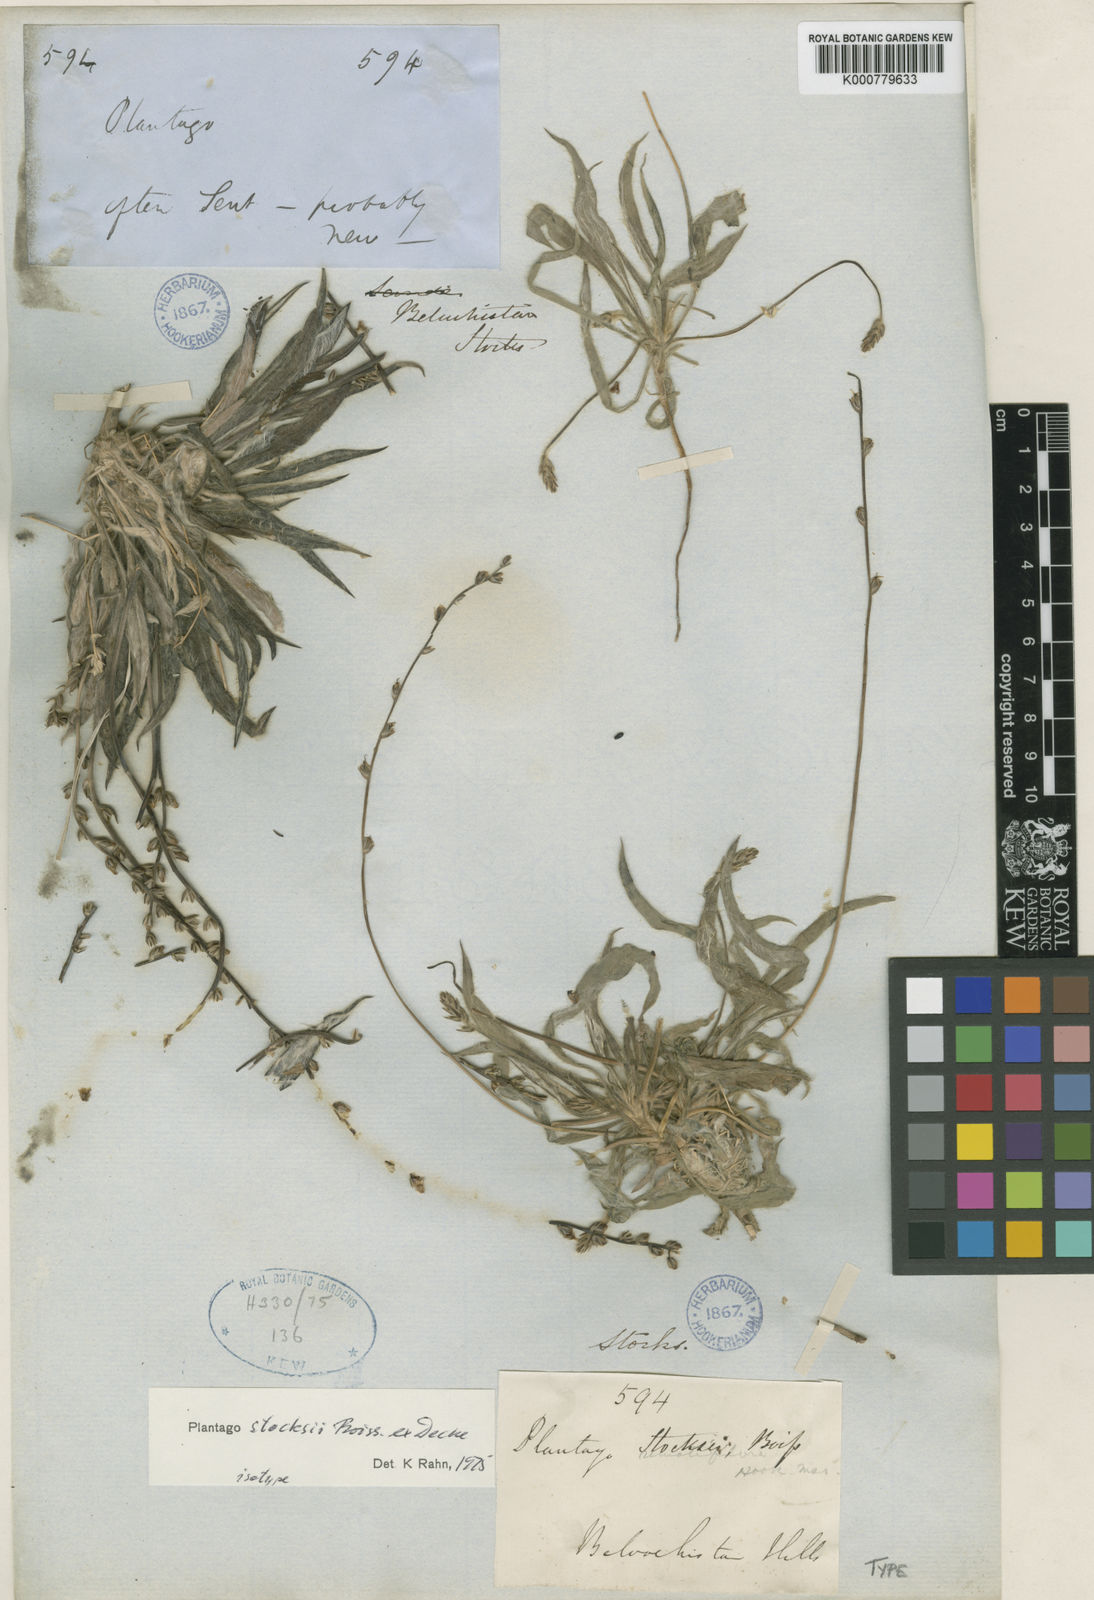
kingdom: Plantae
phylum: Tracheophyta
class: Magnoliopsida
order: Lamiales
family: Plantaginaceae
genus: Plantago
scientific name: Plantago stocksii
